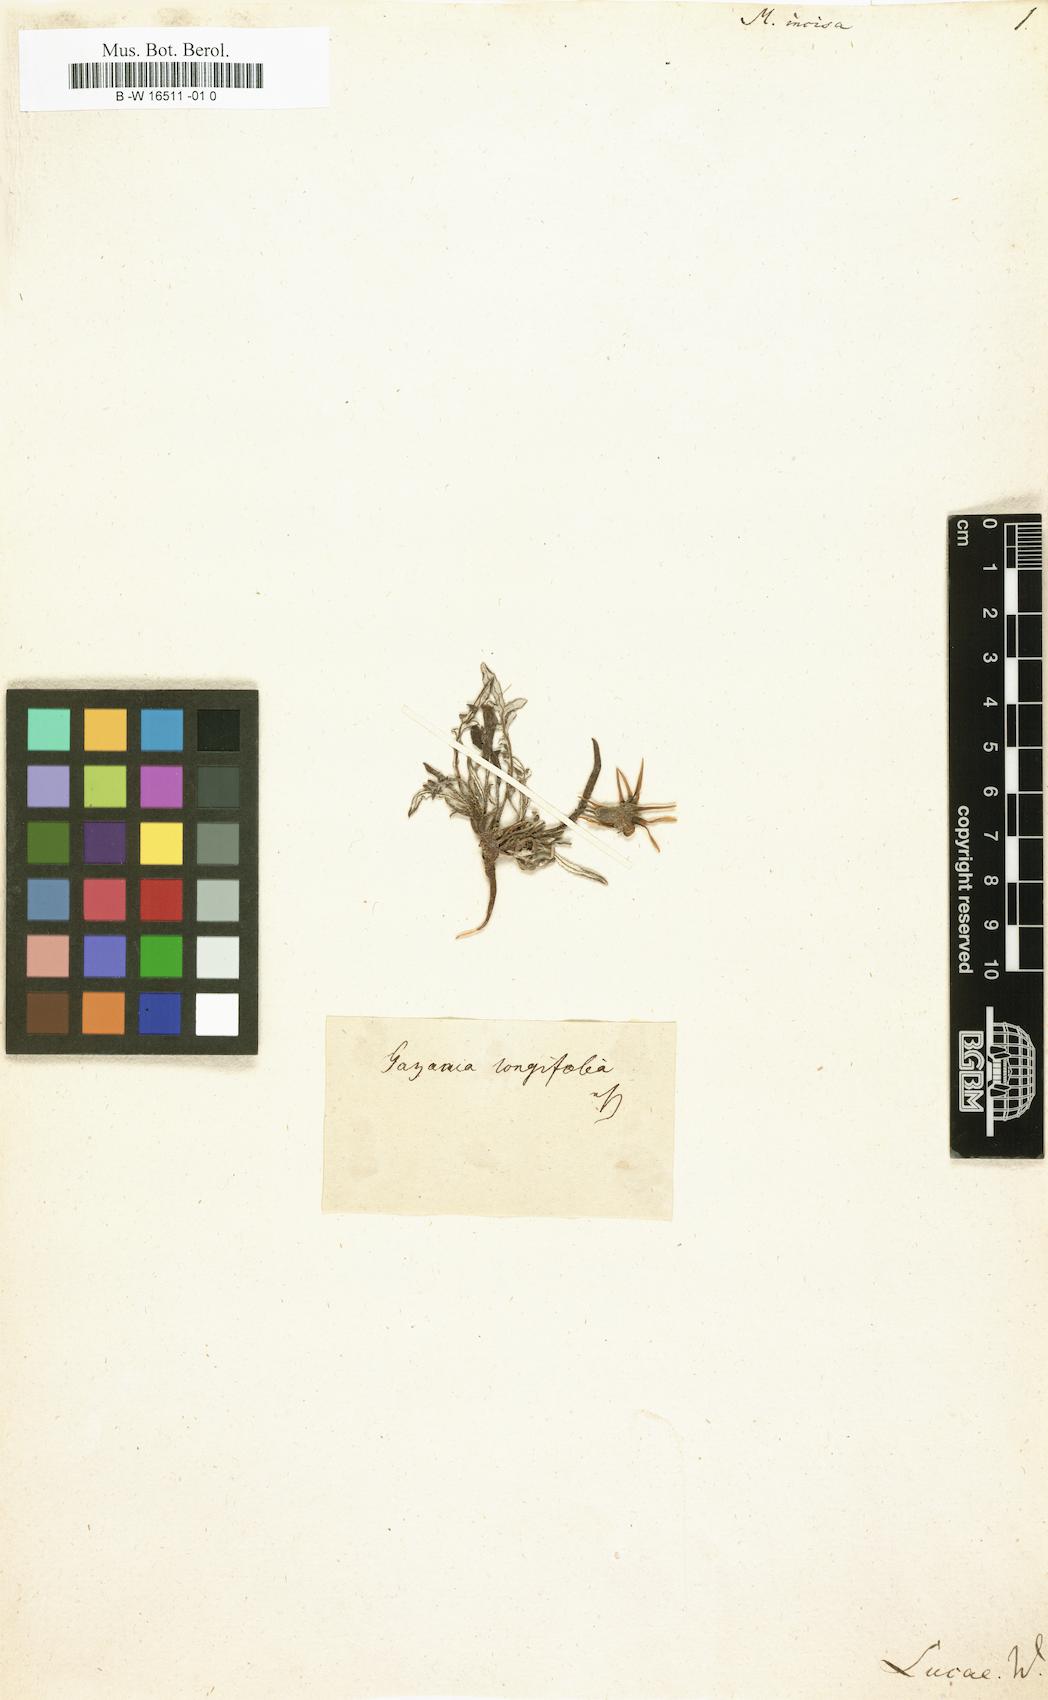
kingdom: Plantae
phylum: Tracheophyta
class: Magnoliopsida
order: Asterales
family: Asteraceae
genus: Gazania
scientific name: Gazania pectinata
